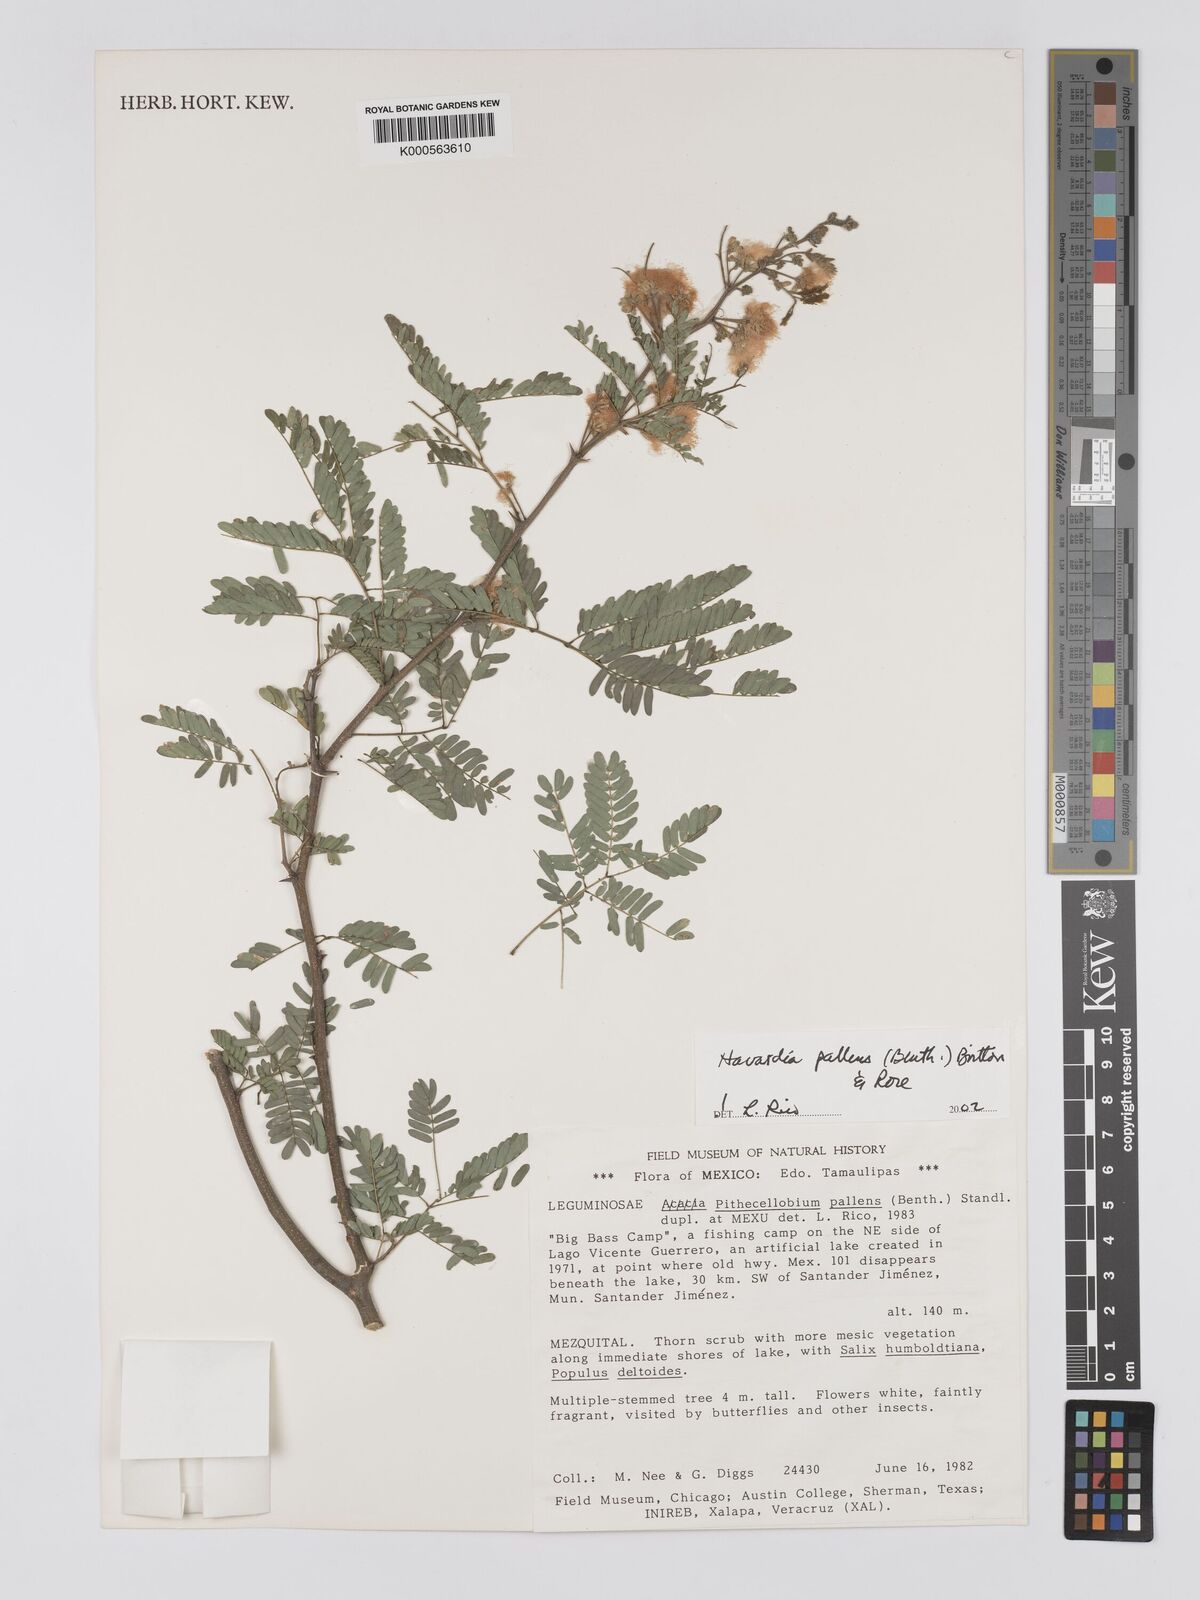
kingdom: Plantae
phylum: Tracheophyta
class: Magnoliopsida
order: Fabales
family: Fabaceae
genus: Havardia
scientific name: Havardia pallens
